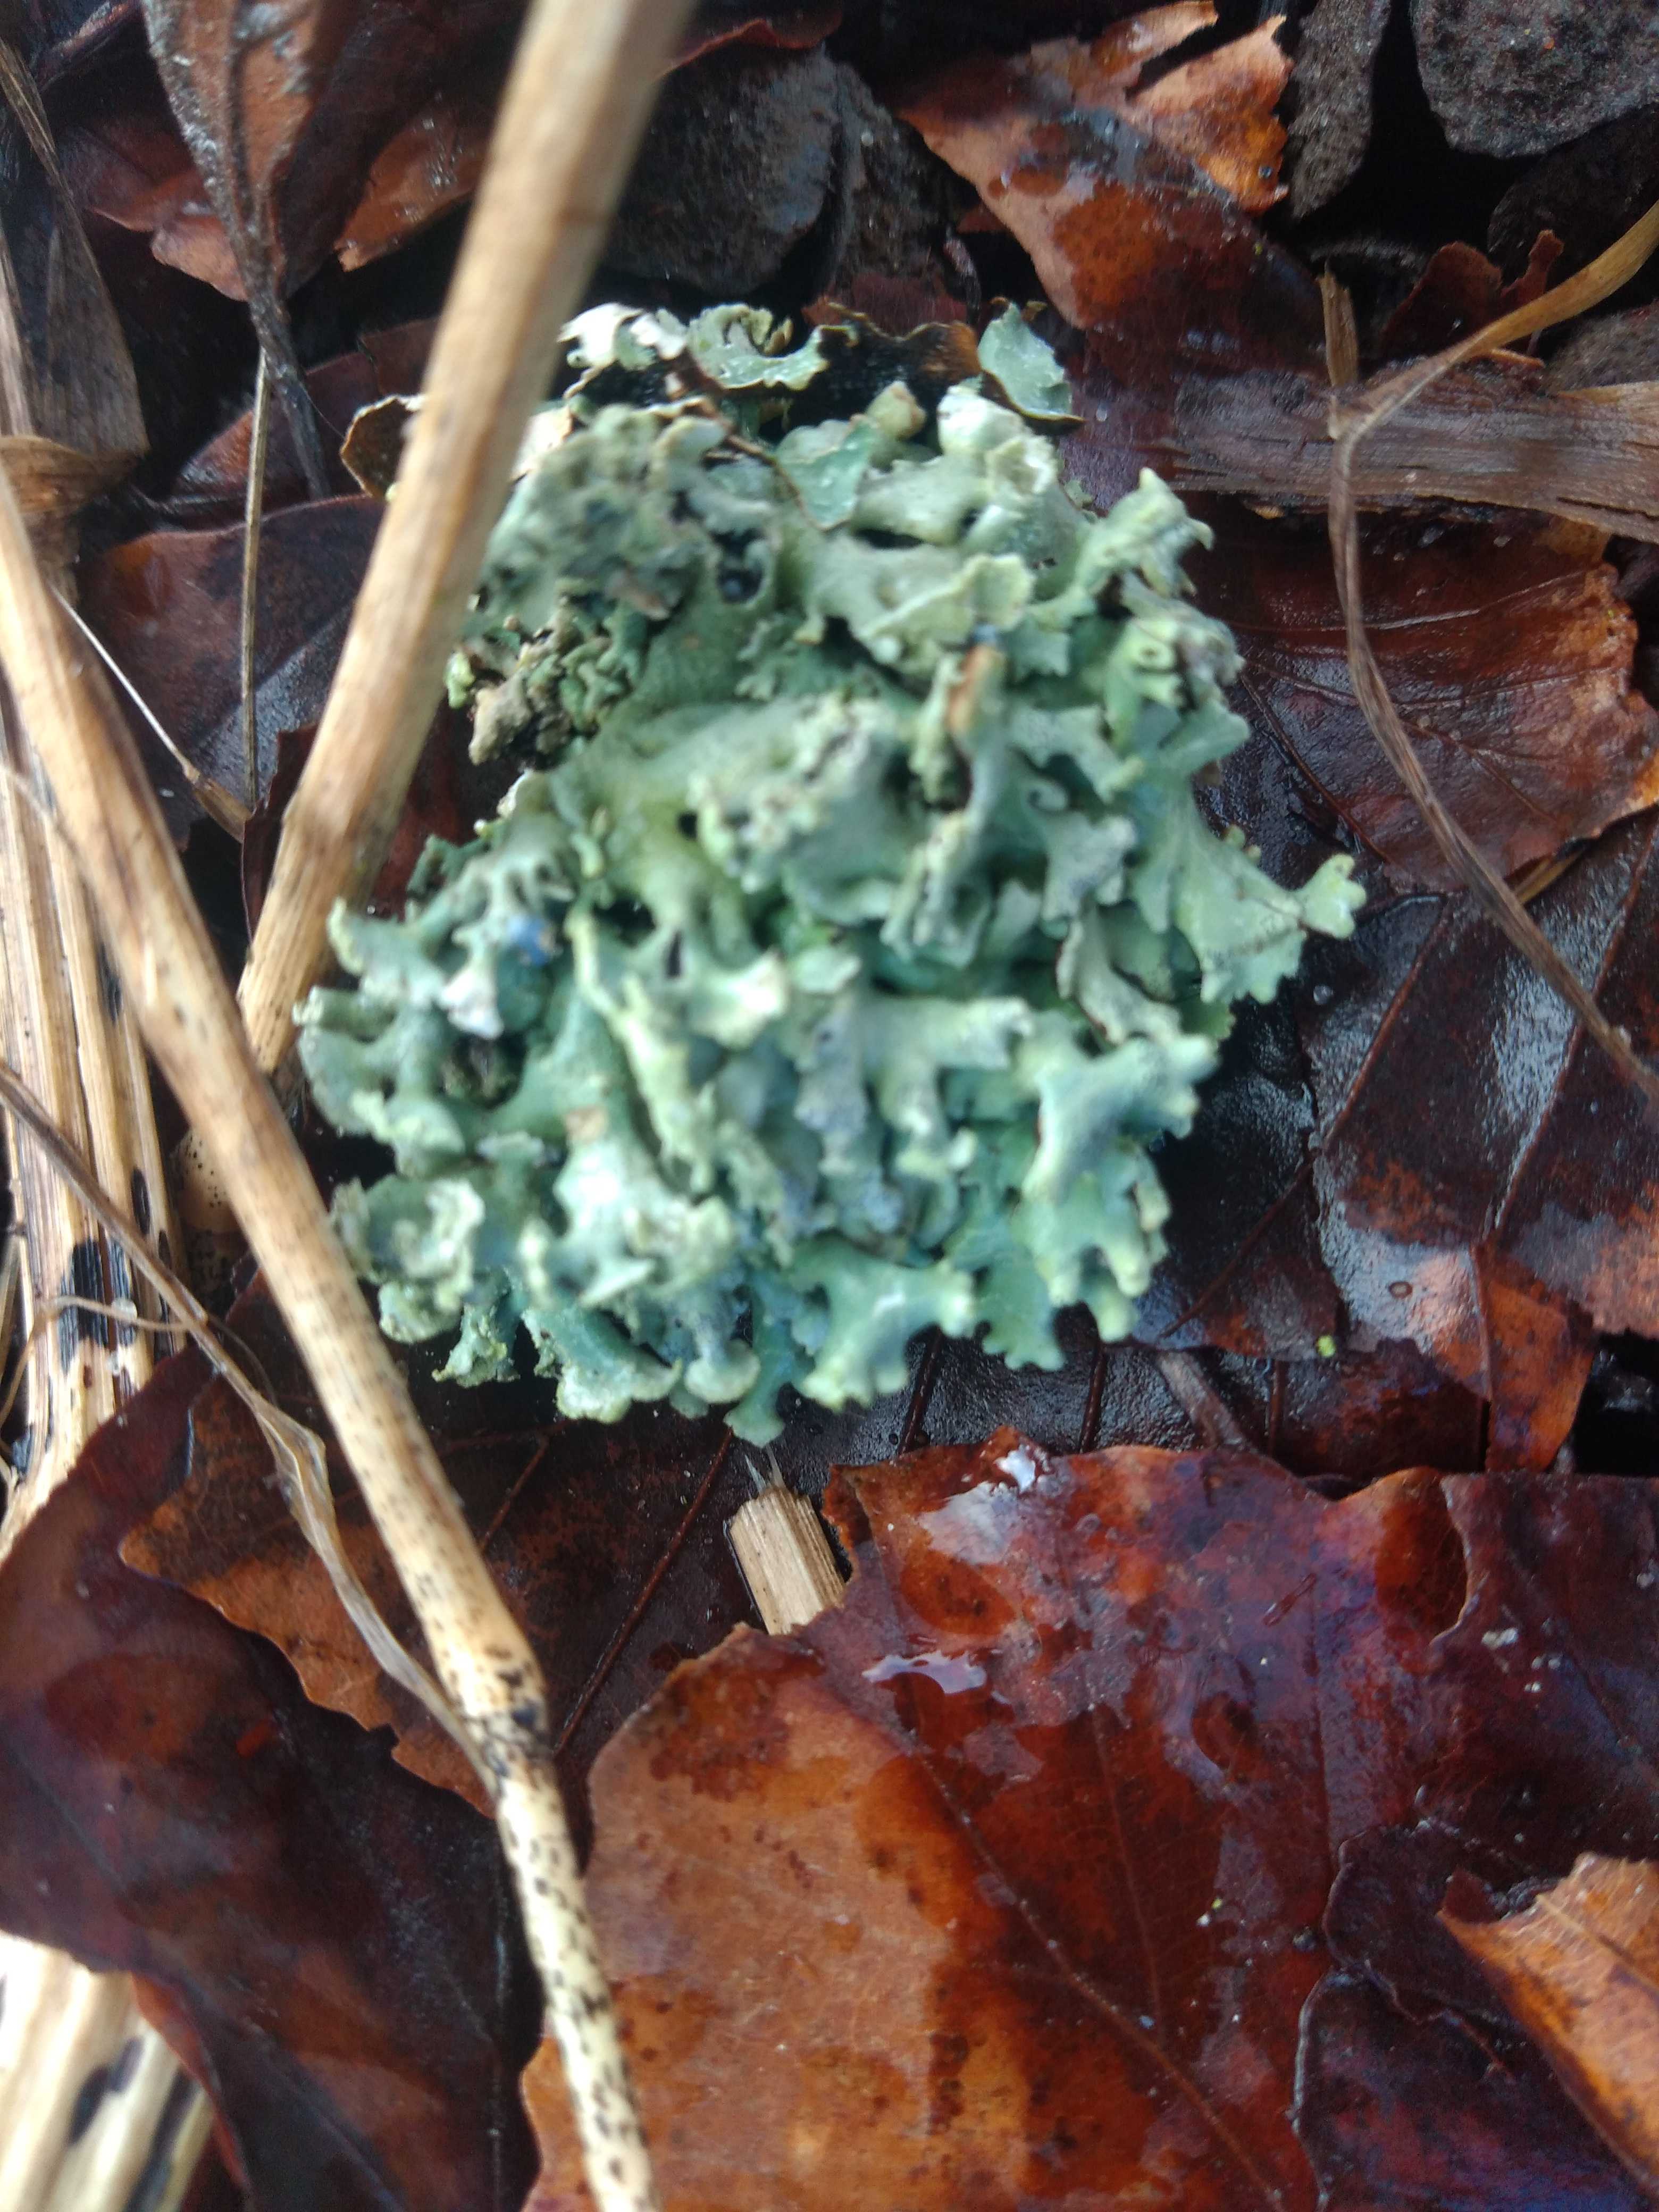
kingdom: Fungi
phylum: Ascomycota
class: Lecanoromycetes
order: Lecanorales
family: Parmeliaceae
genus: Hypogymnia
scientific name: Hypogymnia physodes
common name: almindelig kvistlav
